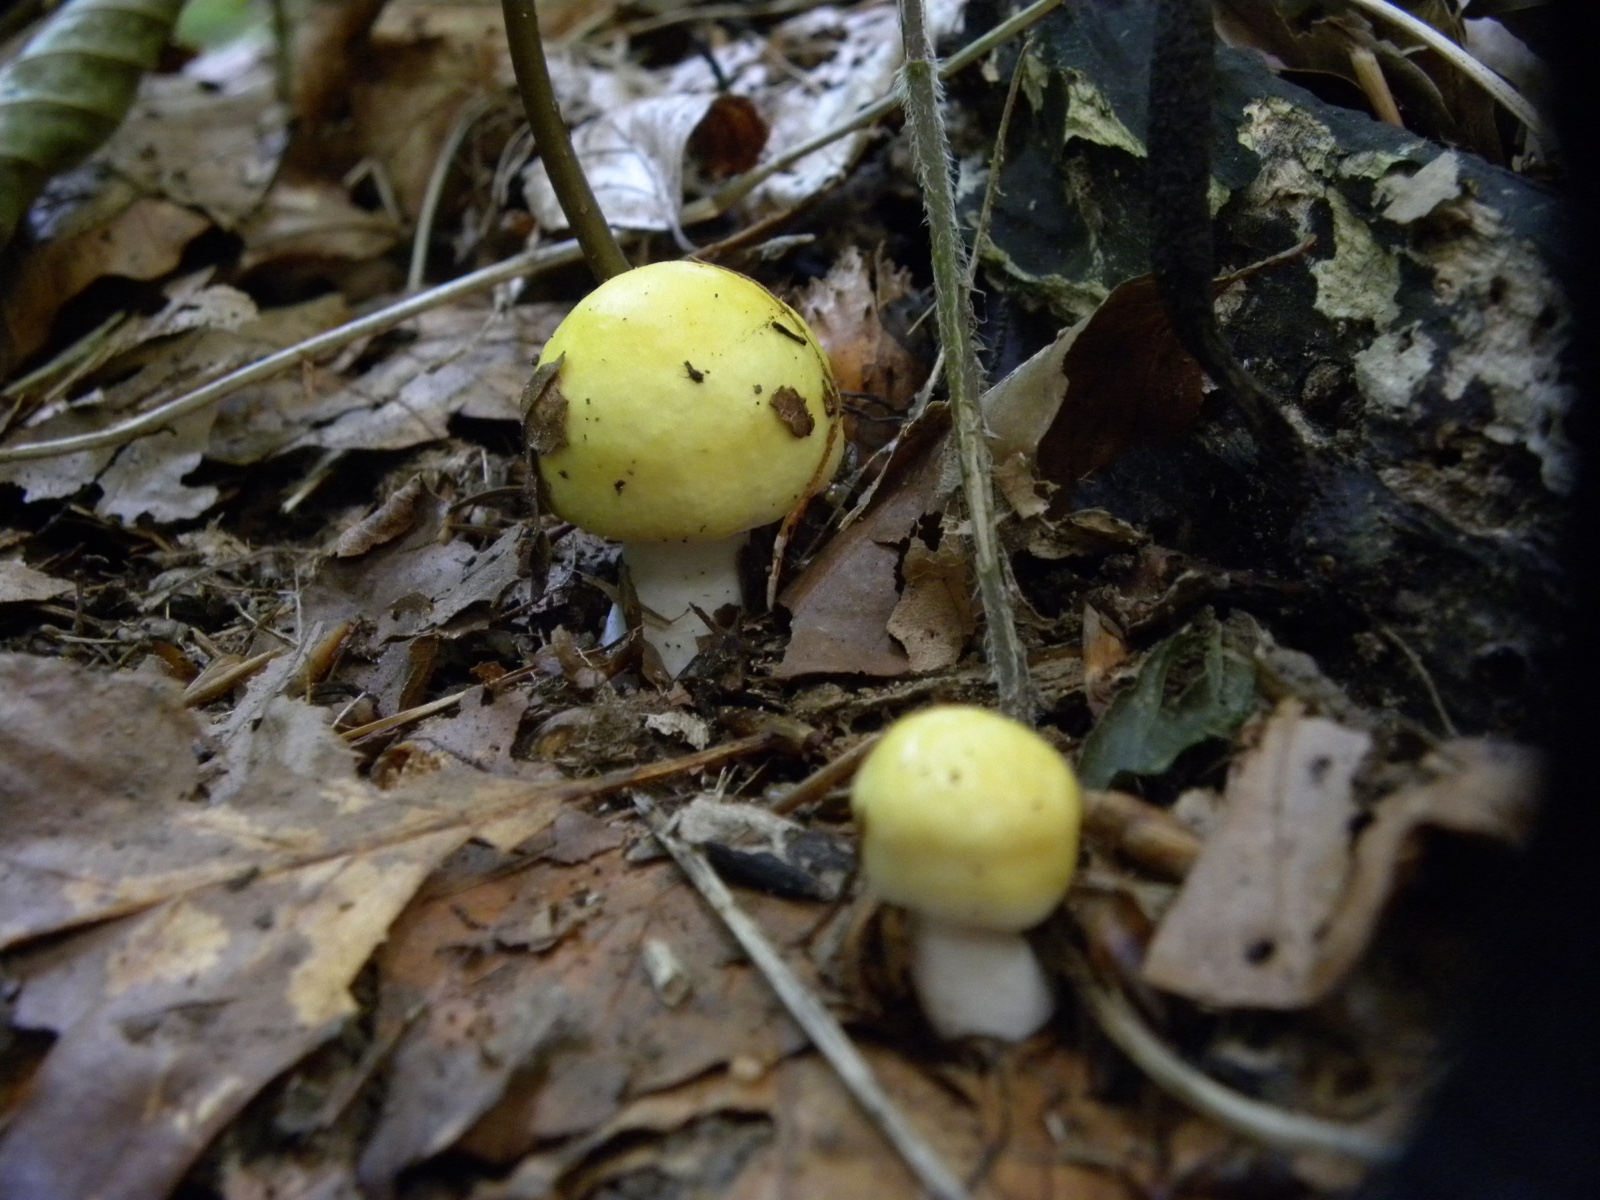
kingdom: Fungi
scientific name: Fungi
